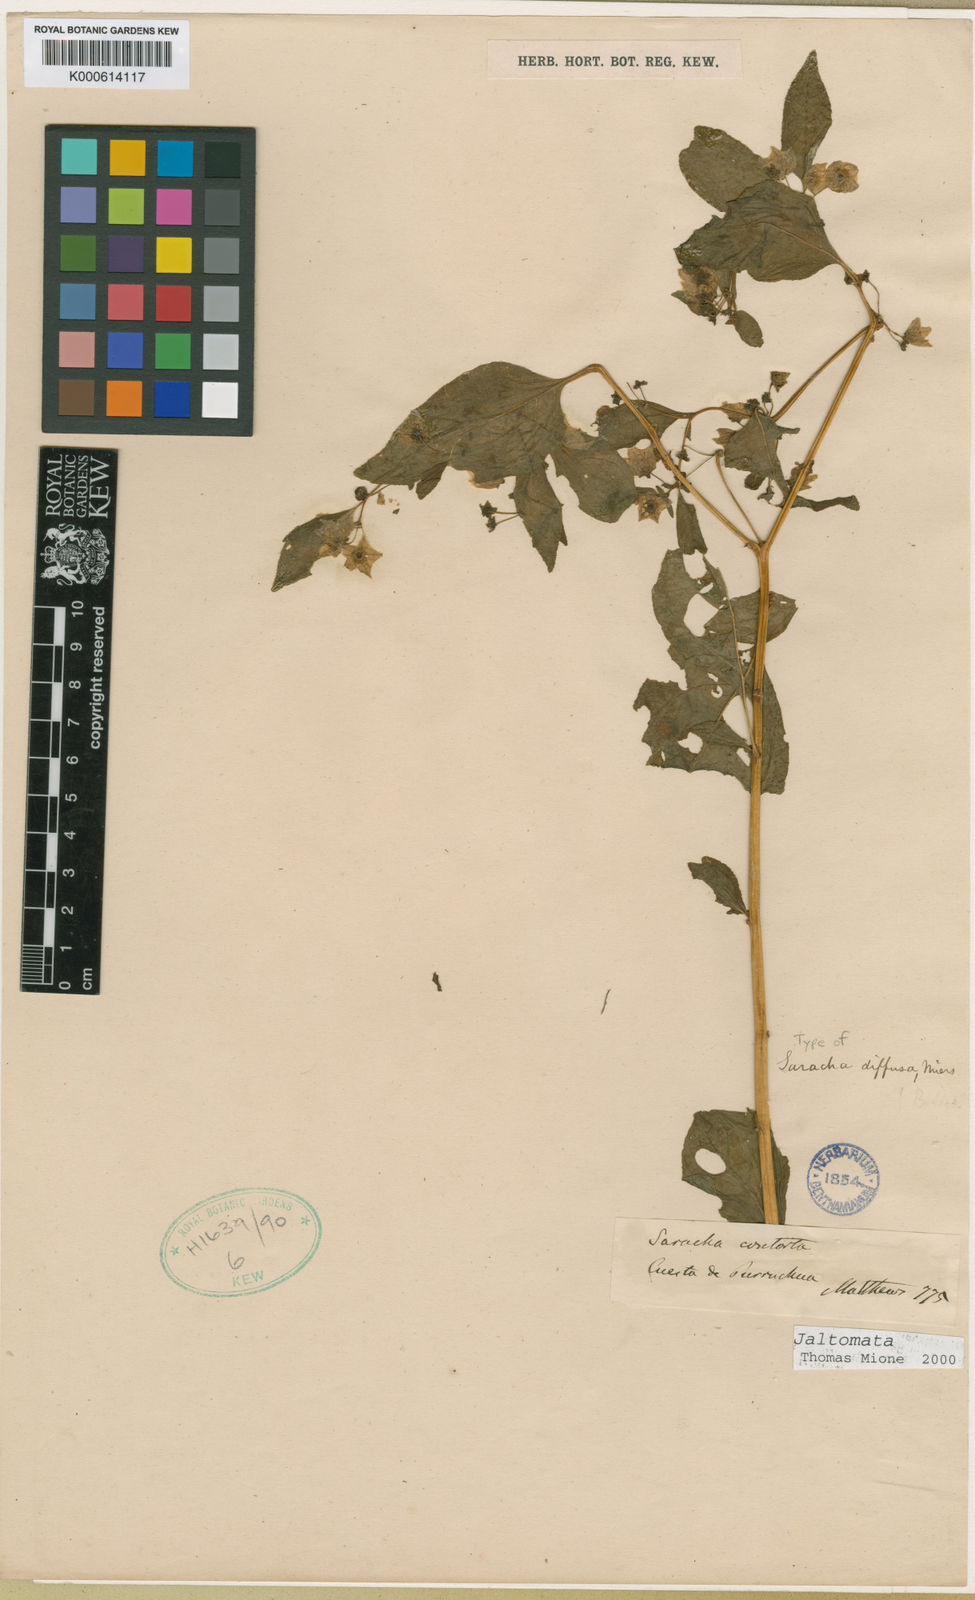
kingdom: Plantae
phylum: Tracheophyta
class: Magnoliopsida
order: Solanales
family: Solanaceae
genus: Saracha
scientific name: Saracha
